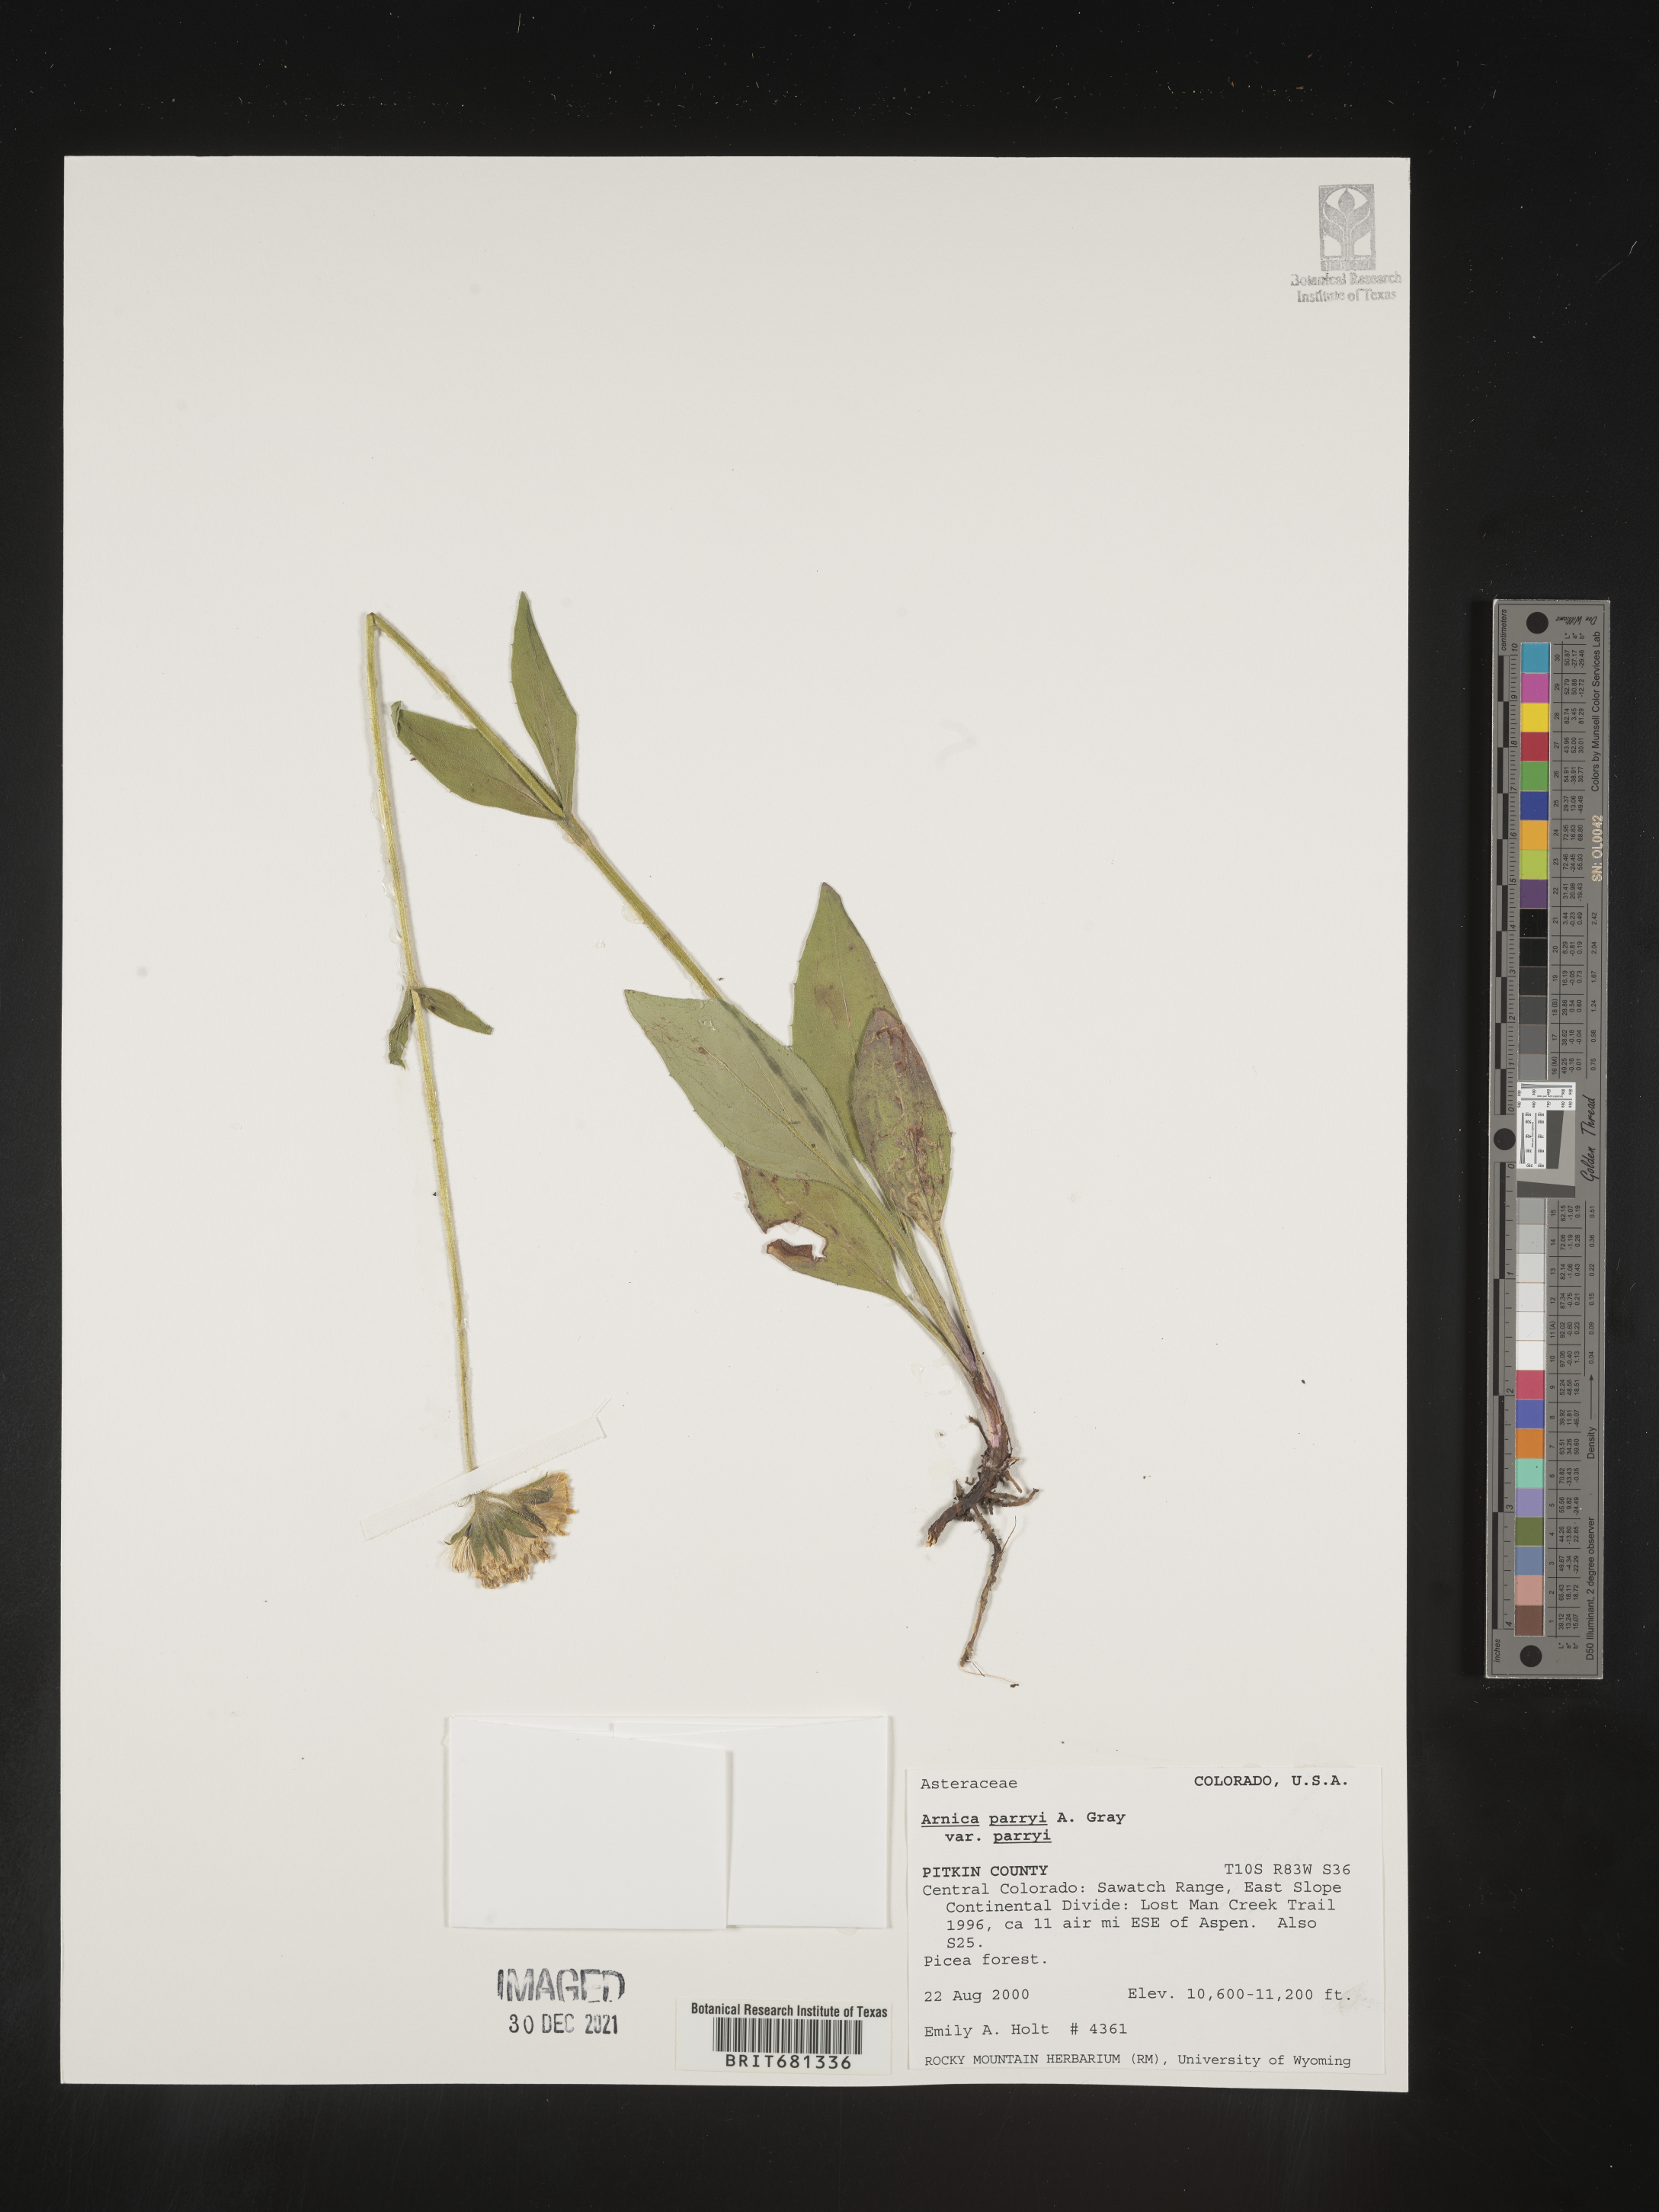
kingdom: Plantae
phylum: Tracheophyta
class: Magnoliopsida
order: Asterales
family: Asteraceae
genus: Arnica
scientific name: Arnica parryi
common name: Parry's arnica
